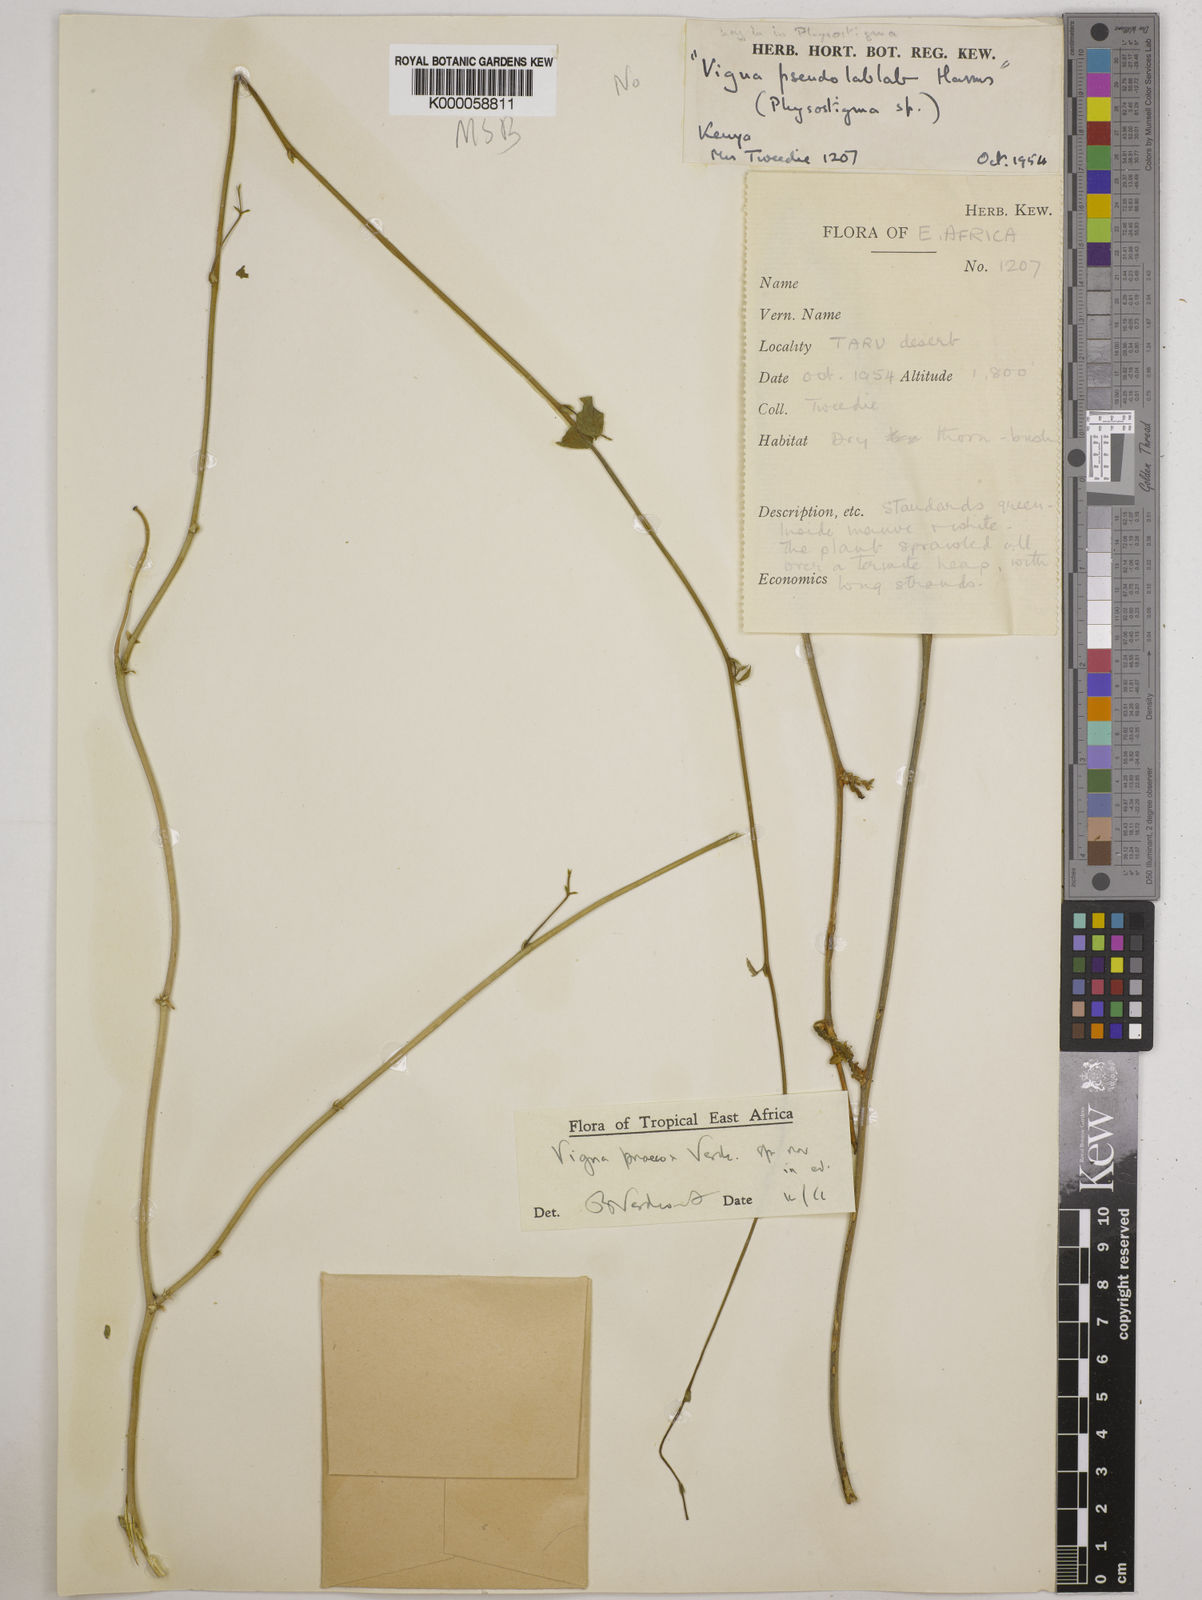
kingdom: Plantae
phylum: Tracheophyta
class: Magnoliopsida
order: Fabales
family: Fabaceae
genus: Wajira
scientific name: Wajira praecox
